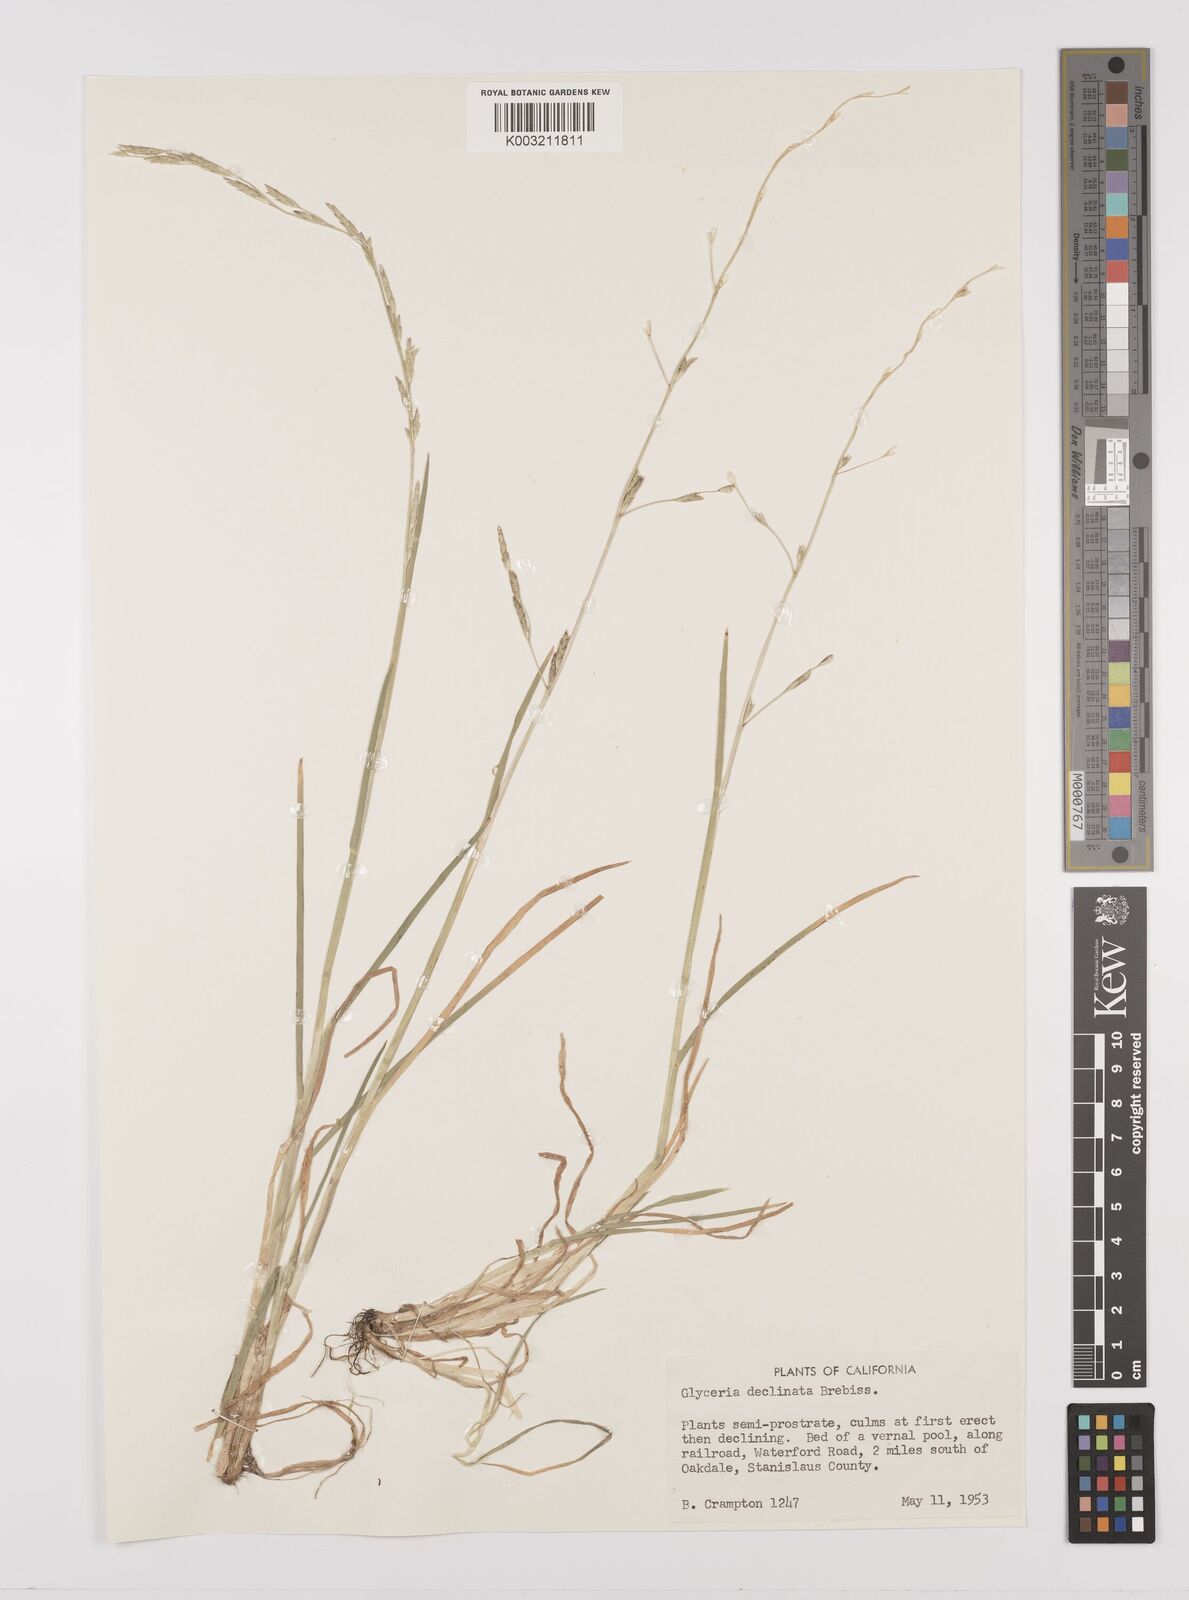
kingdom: Plantae
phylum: Tracheophyta
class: Liliopsida
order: Poales
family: Poaceae
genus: Glyceria
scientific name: Glyceria declinata
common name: Small sweet-grass
